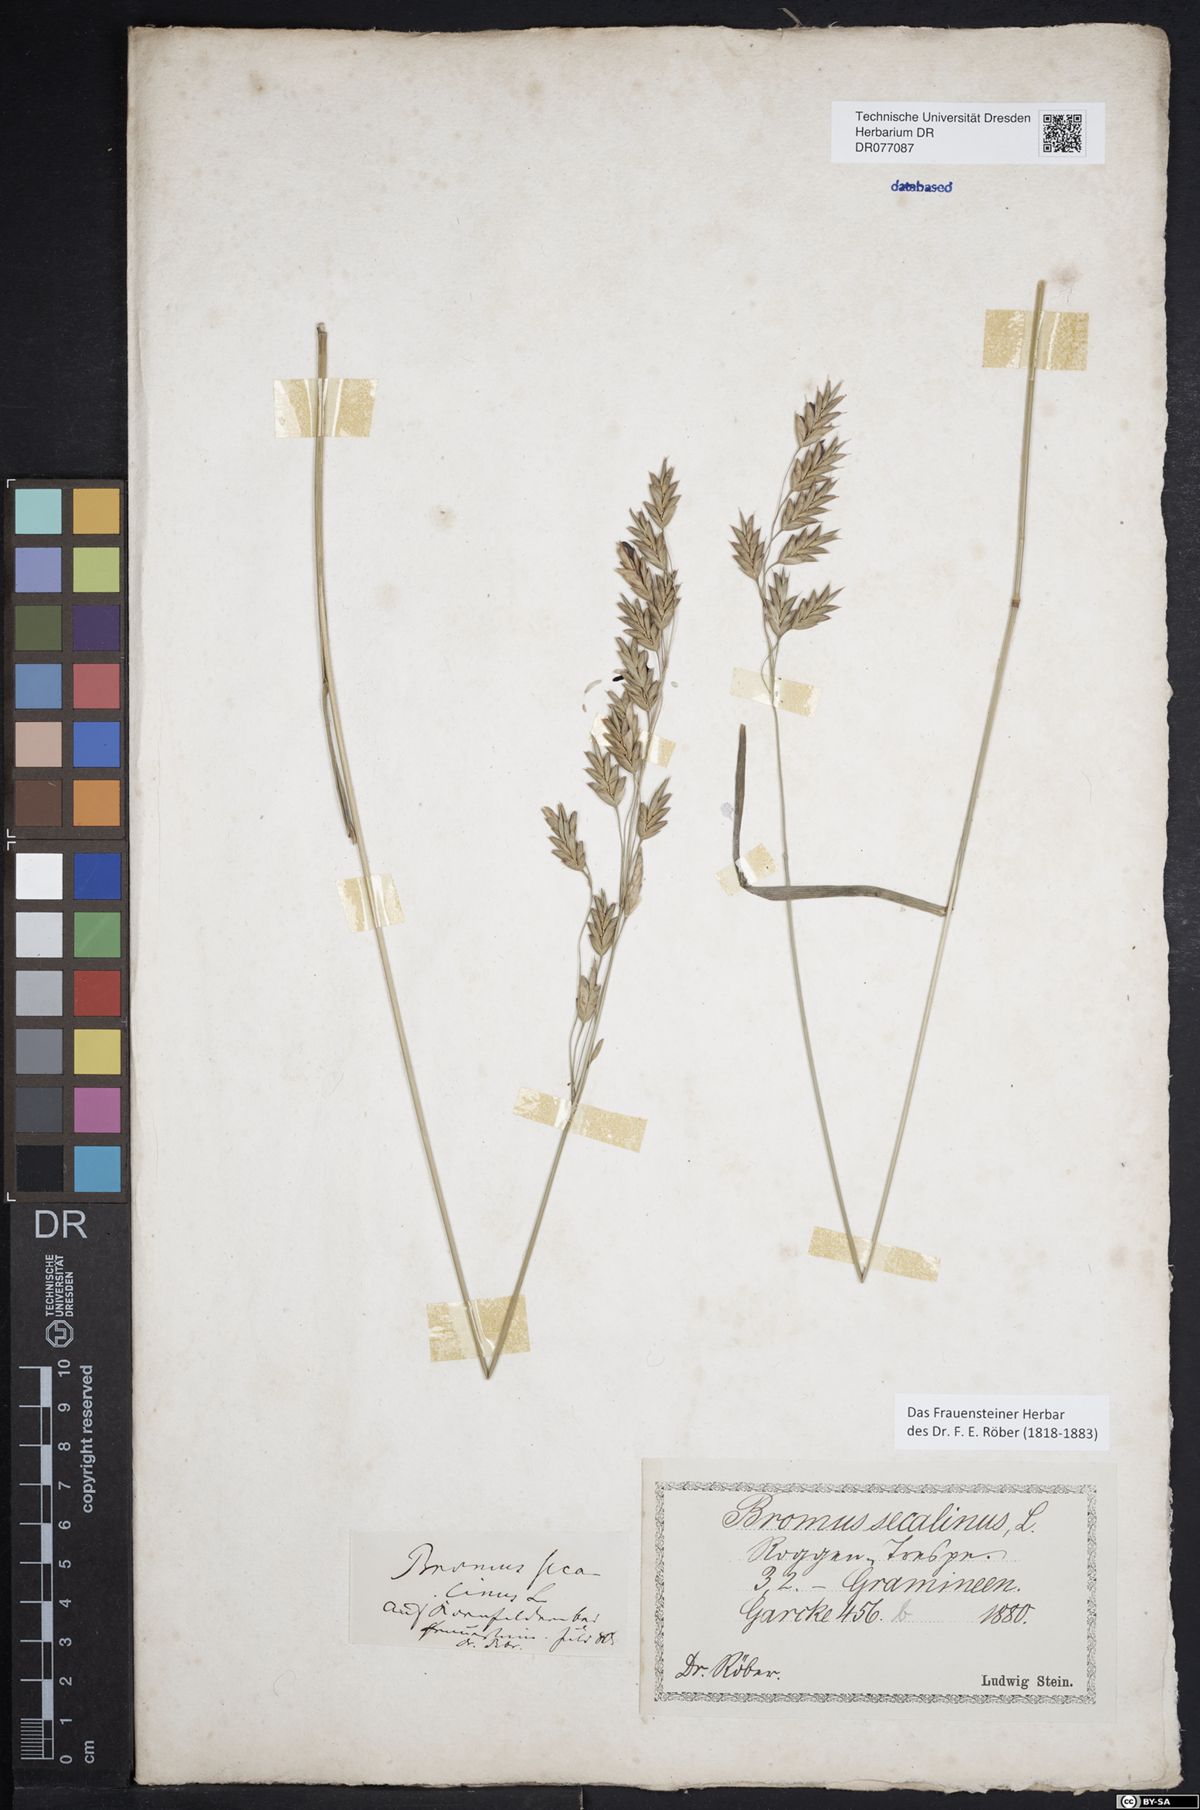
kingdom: Plantae
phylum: Tracheophyta
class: Liliopsida
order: Poales
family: Poaceae
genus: Bromus
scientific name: Bromus secalinus
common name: Rye brome
